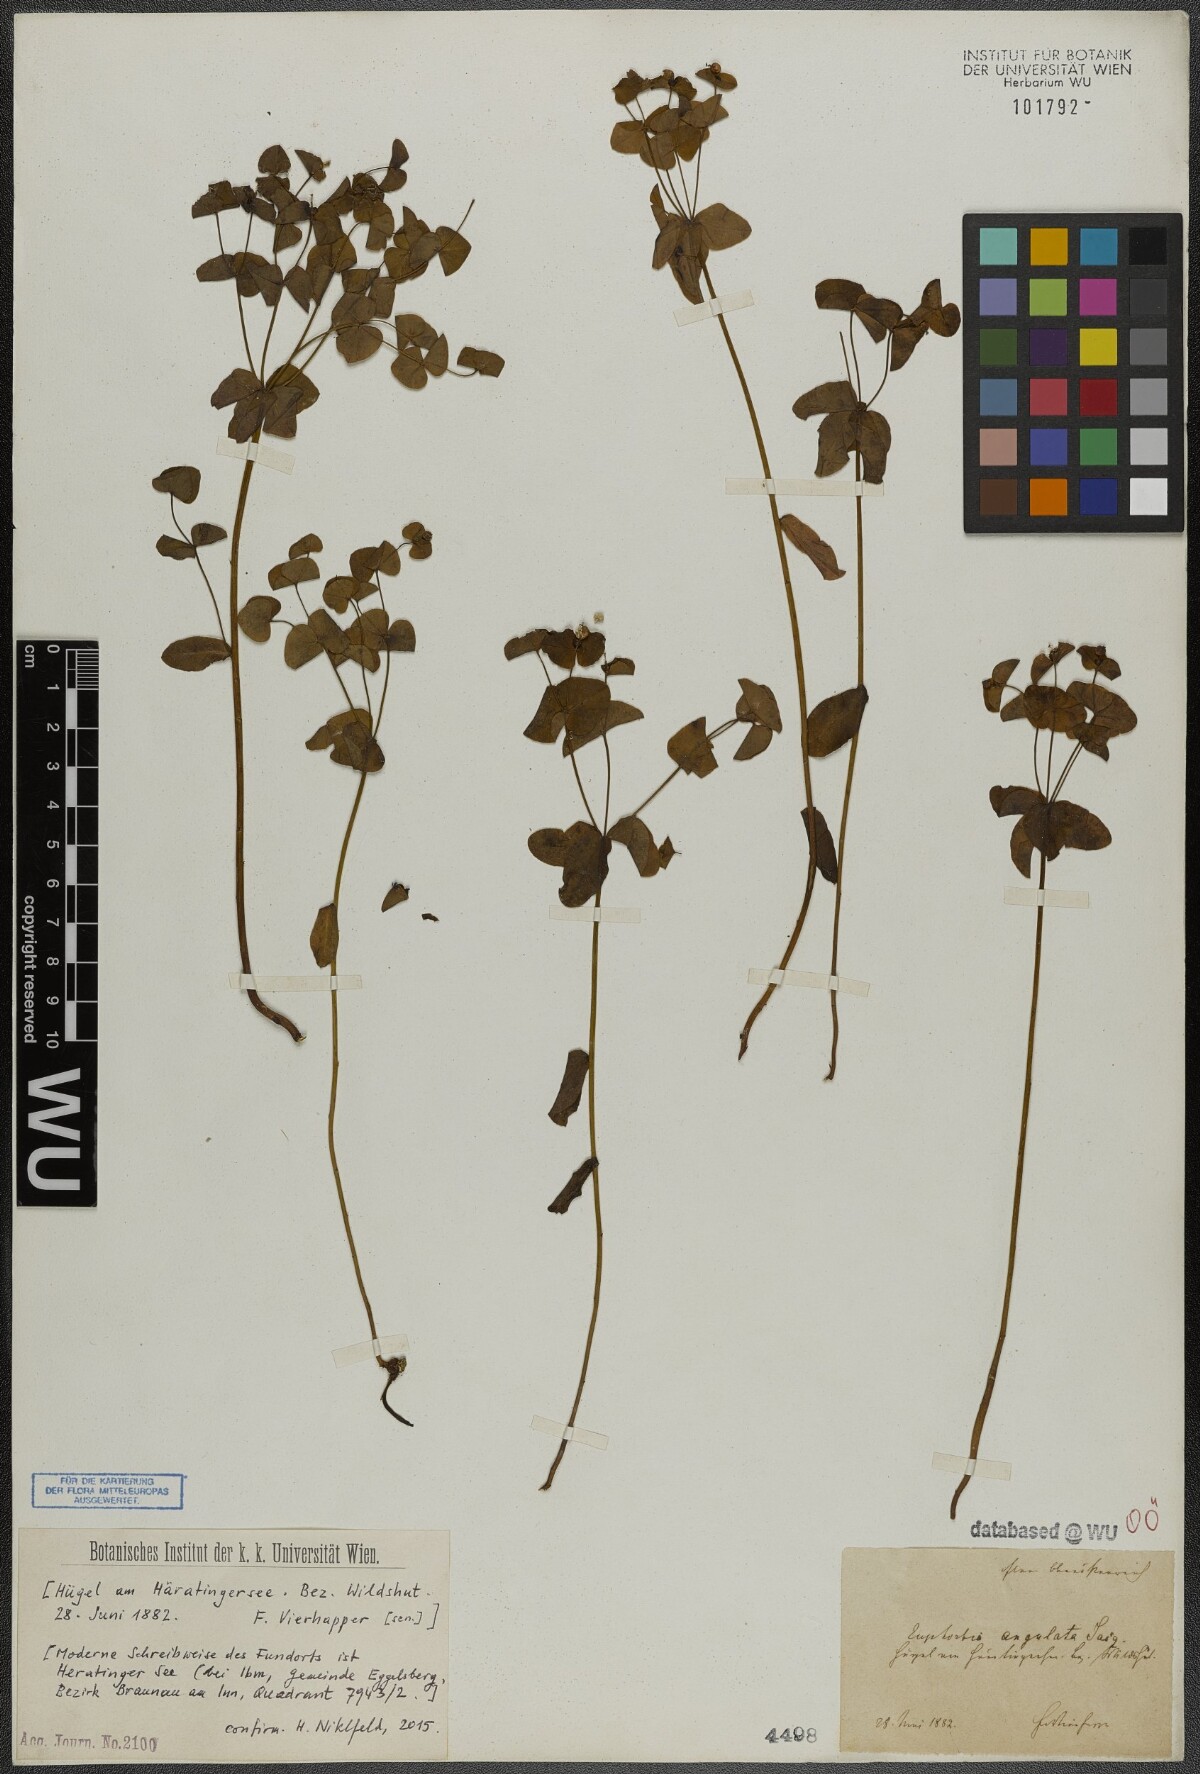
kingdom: Plantae
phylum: Tracheophyta
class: Magnoliopsida
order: Malpighiales
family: Euphorbiaceae
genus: Euphorbia
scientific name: Euphorbia angulata
